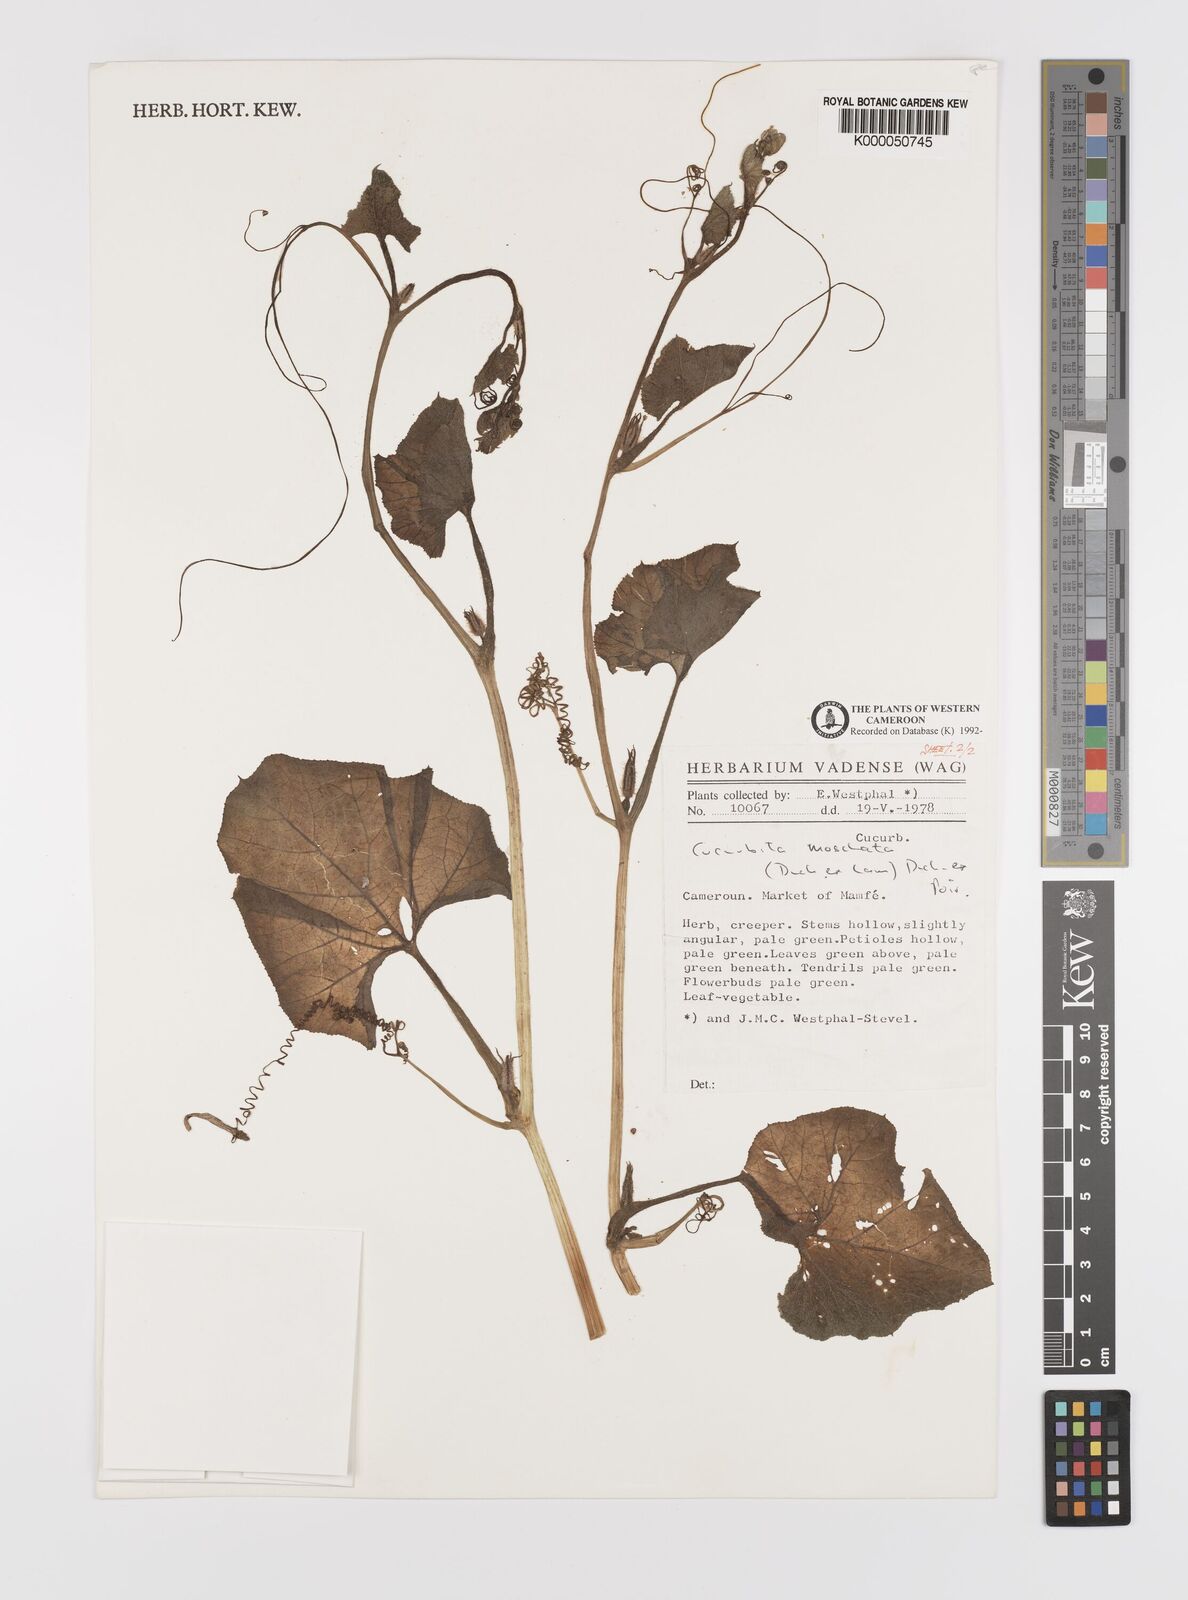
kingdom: Plantae
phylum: Tracheophyta
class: Magnoliopsida
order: Cucurbitales
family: Cucurbitaceae
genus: Cucurbita
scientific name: Cucurbita
